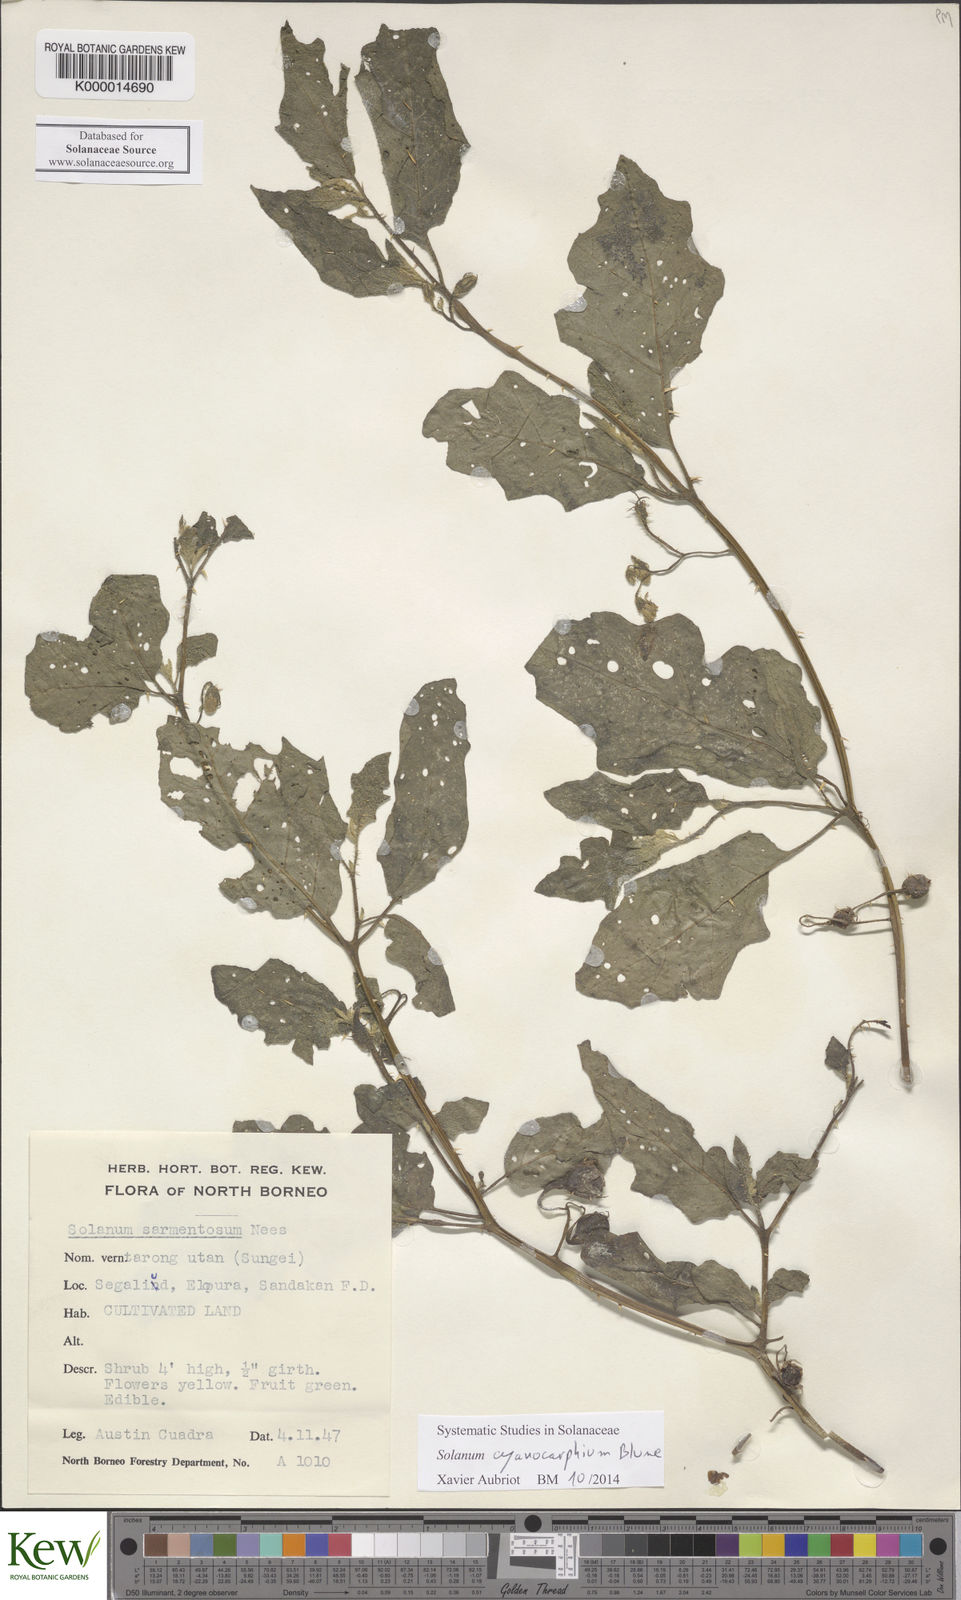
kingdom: Plantae
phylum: Tracheophyta
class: Magnoliopsida
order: Solanales
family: Solanaceae
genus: Solanum
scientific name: Solanum cyanocarphium
